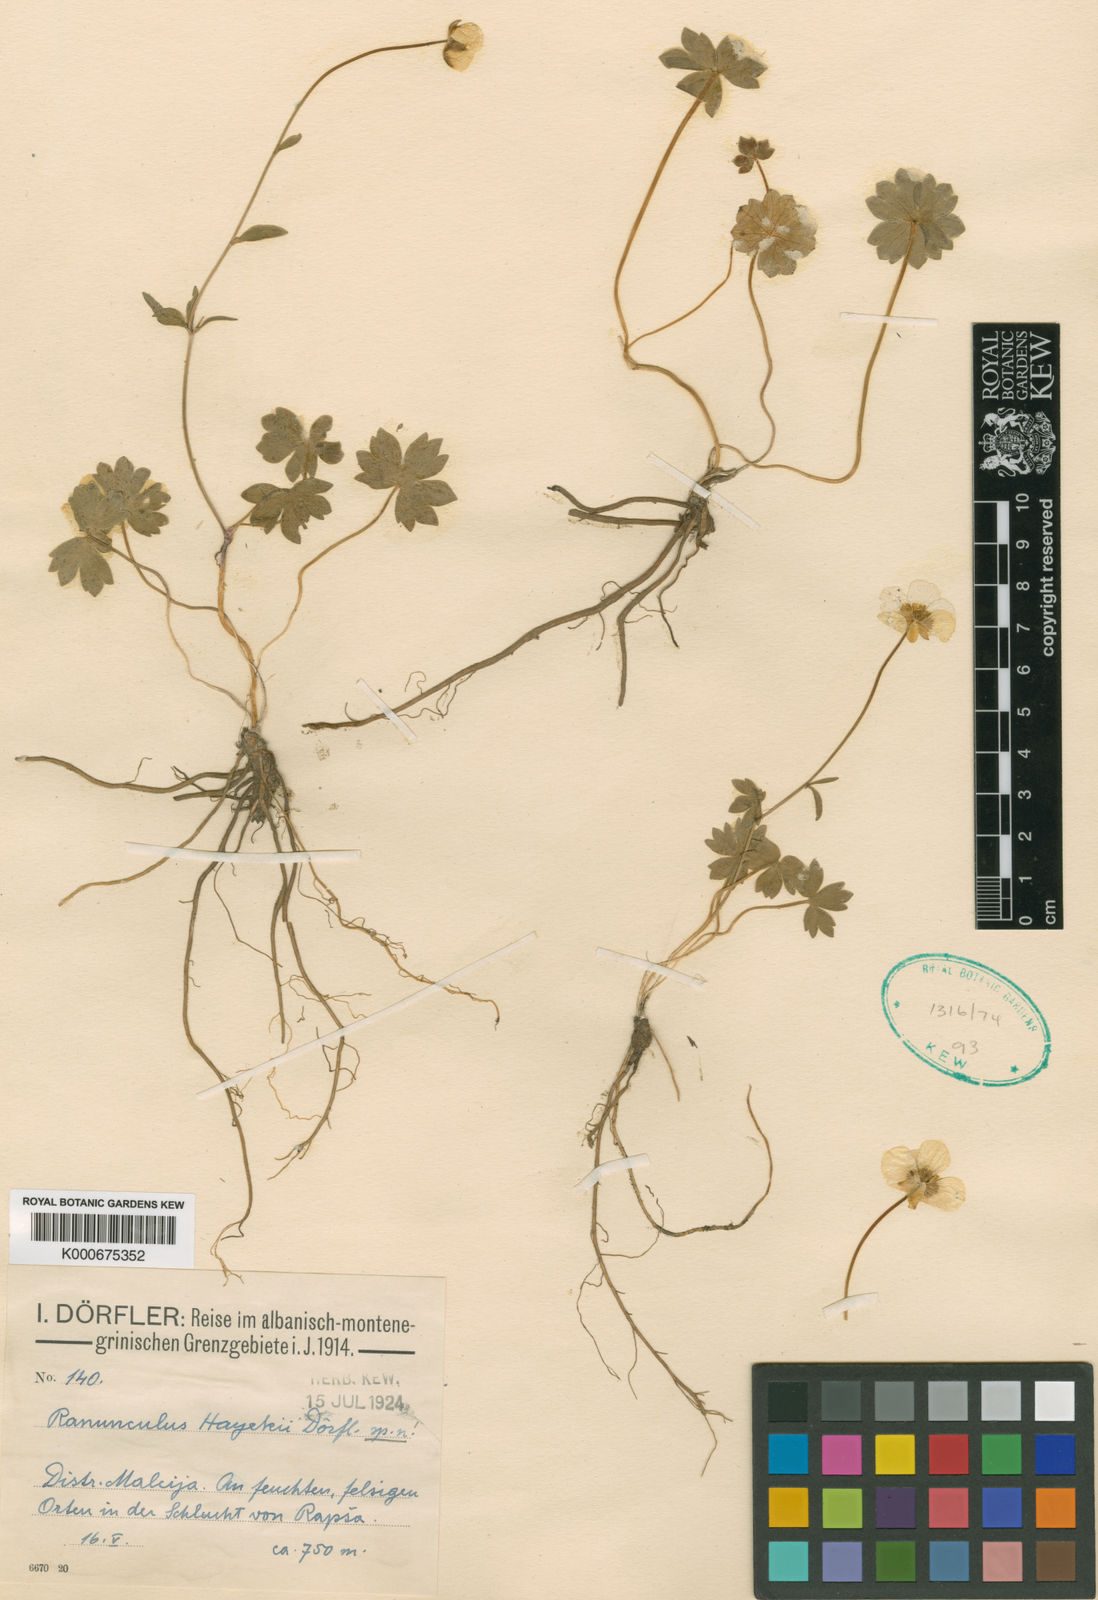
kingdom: Plantae
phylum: Tracheophyta
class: Magnoliopsida
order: Ranunculales
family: Ranunculaceae
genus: Ranunculus
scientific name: Ranunculus
